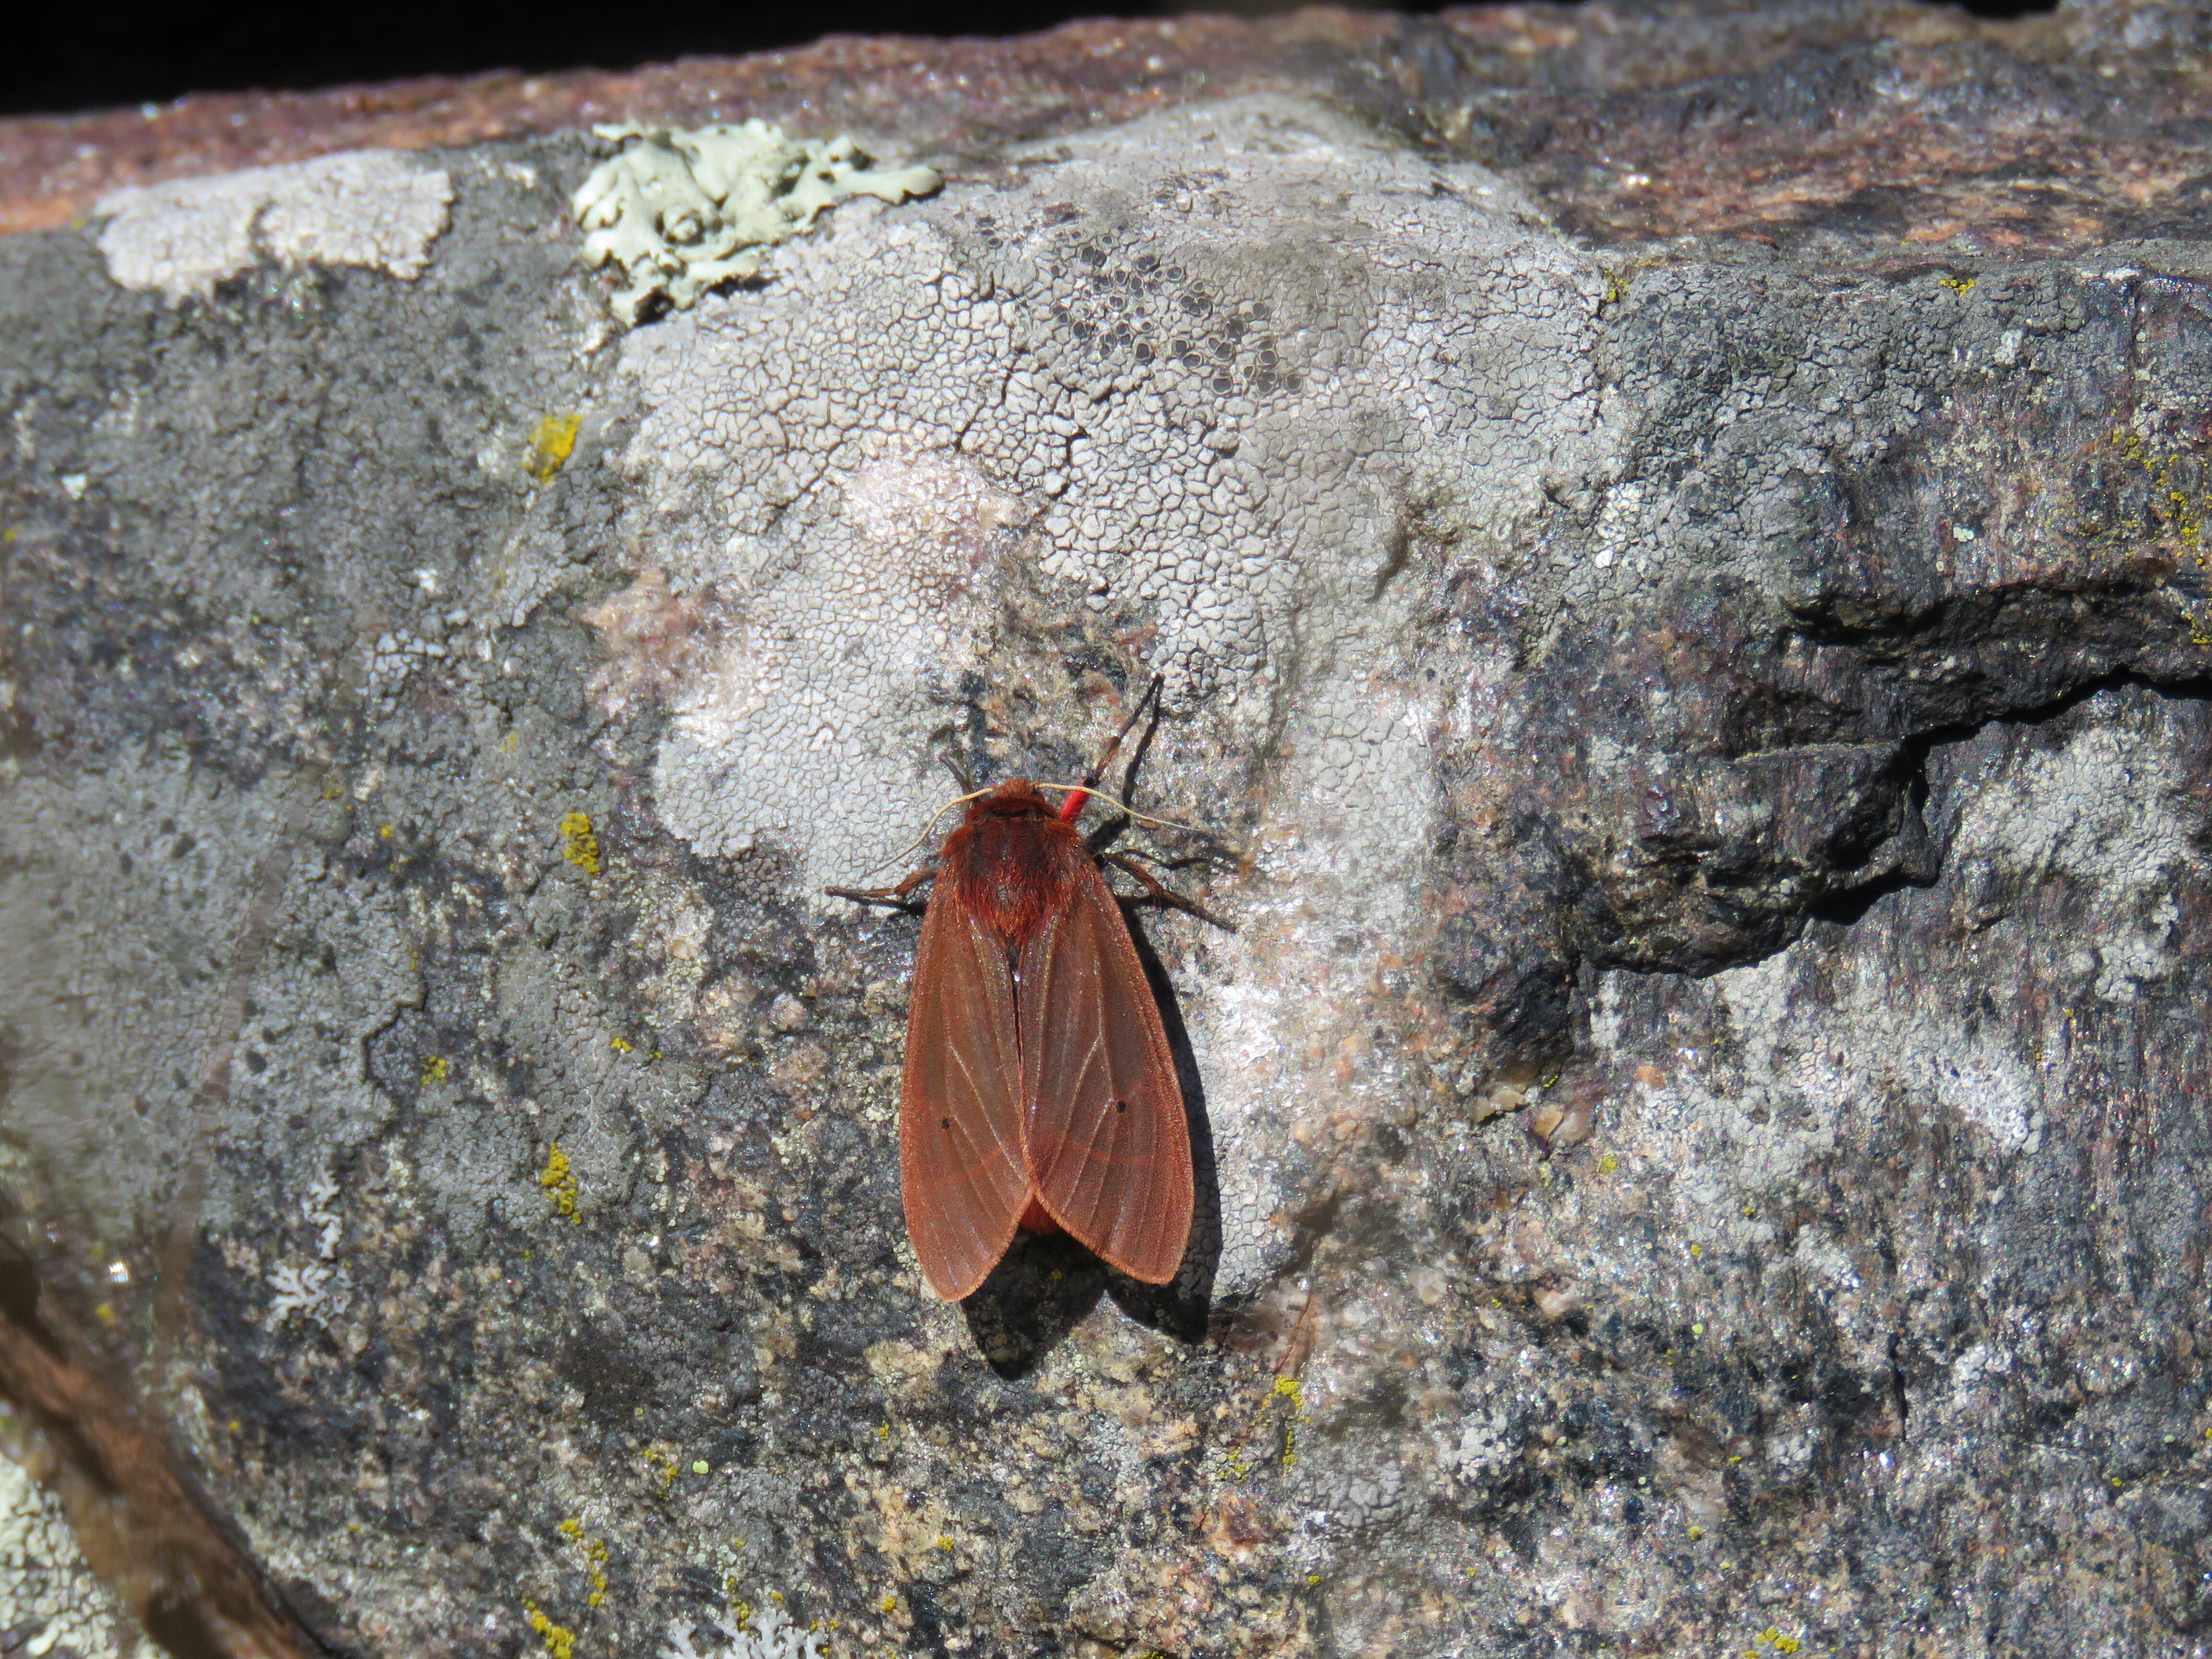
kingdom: Animalia
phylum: Arthropoda
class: Insecta
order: Lepidoptera
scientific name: Lepidoptera
